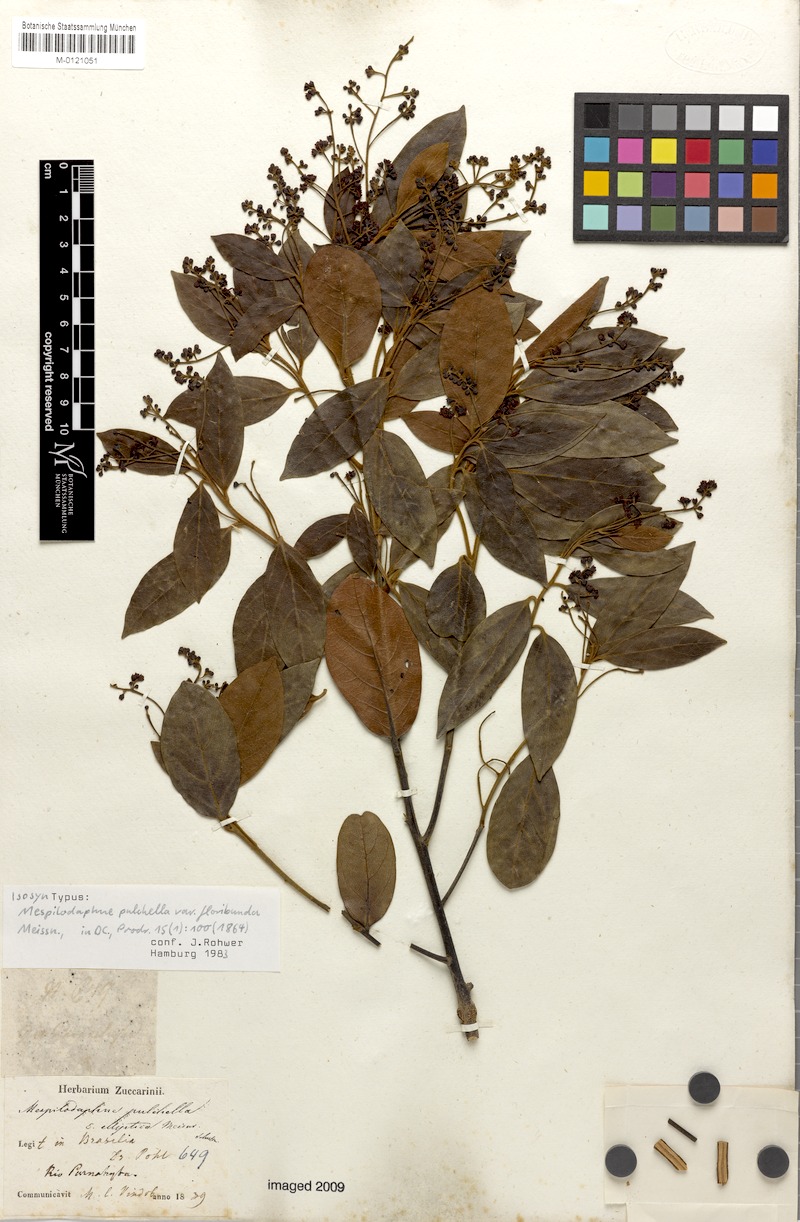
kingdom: Plantae
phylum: Tracheophyta
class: Magnoliopsida
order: Laurales
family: Lauraceae
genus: Mespilodaphne
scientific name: Mespilodaphne pulchella
